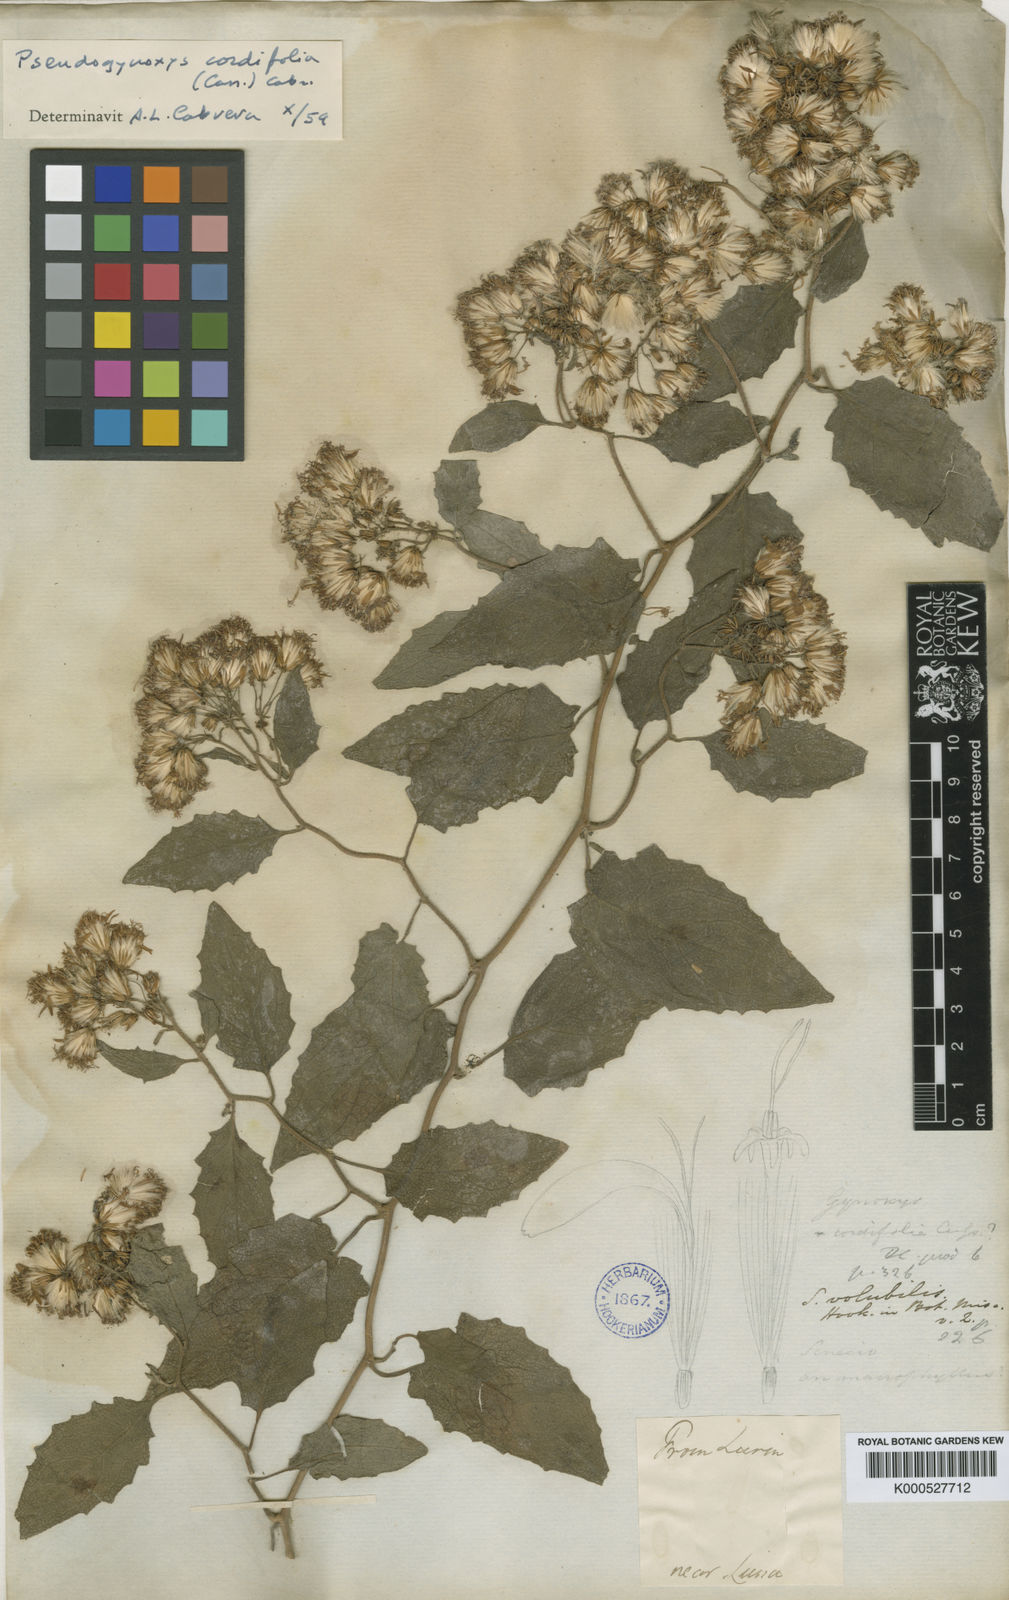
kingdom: Plantae
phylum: Tracheophyta
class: Magnoliopsida
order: Asterales
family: Asteraceae
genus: Pseudogynoxys
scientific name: Pseudogynoxys chenopodioides
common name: Mexican flamevine
